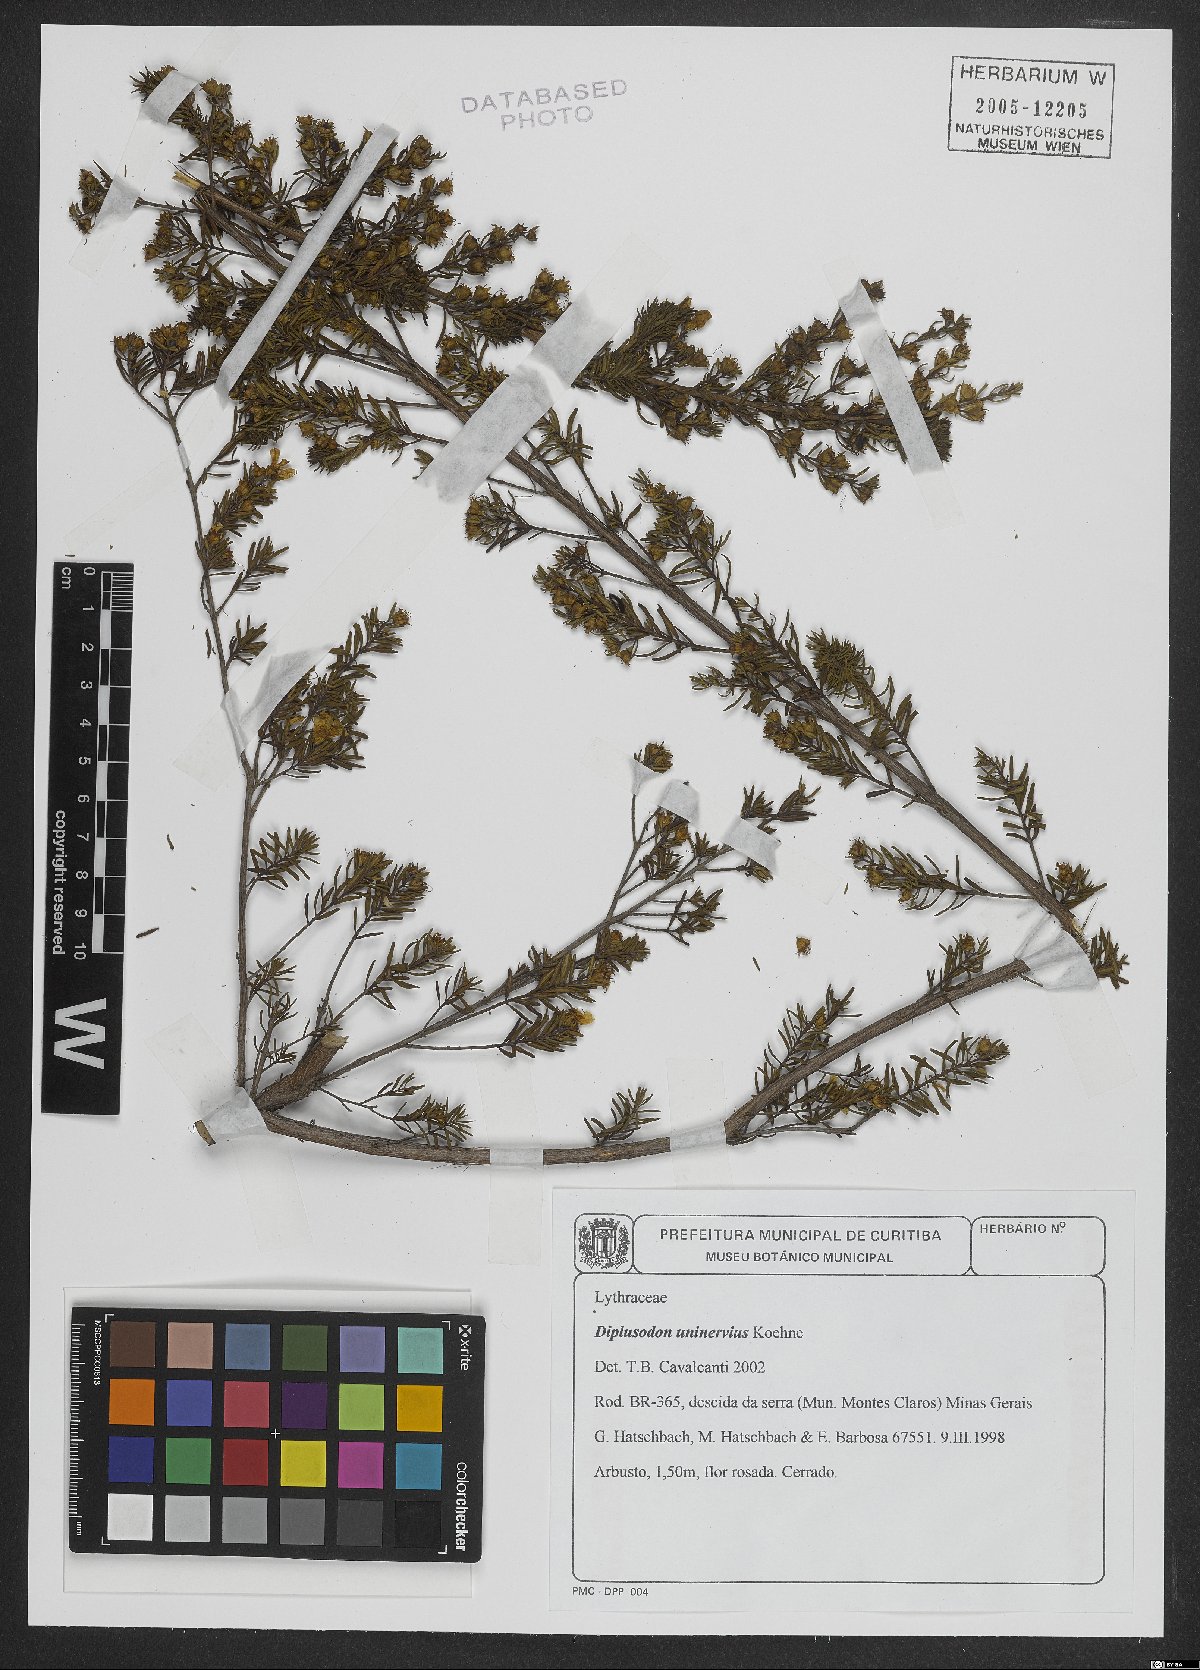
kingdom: Plantae
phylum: Tracheophyta
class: Magnoliopsida
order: Myrtales
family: Lythraceae
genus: Diplusodon
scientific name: Diplusodon uninervius
